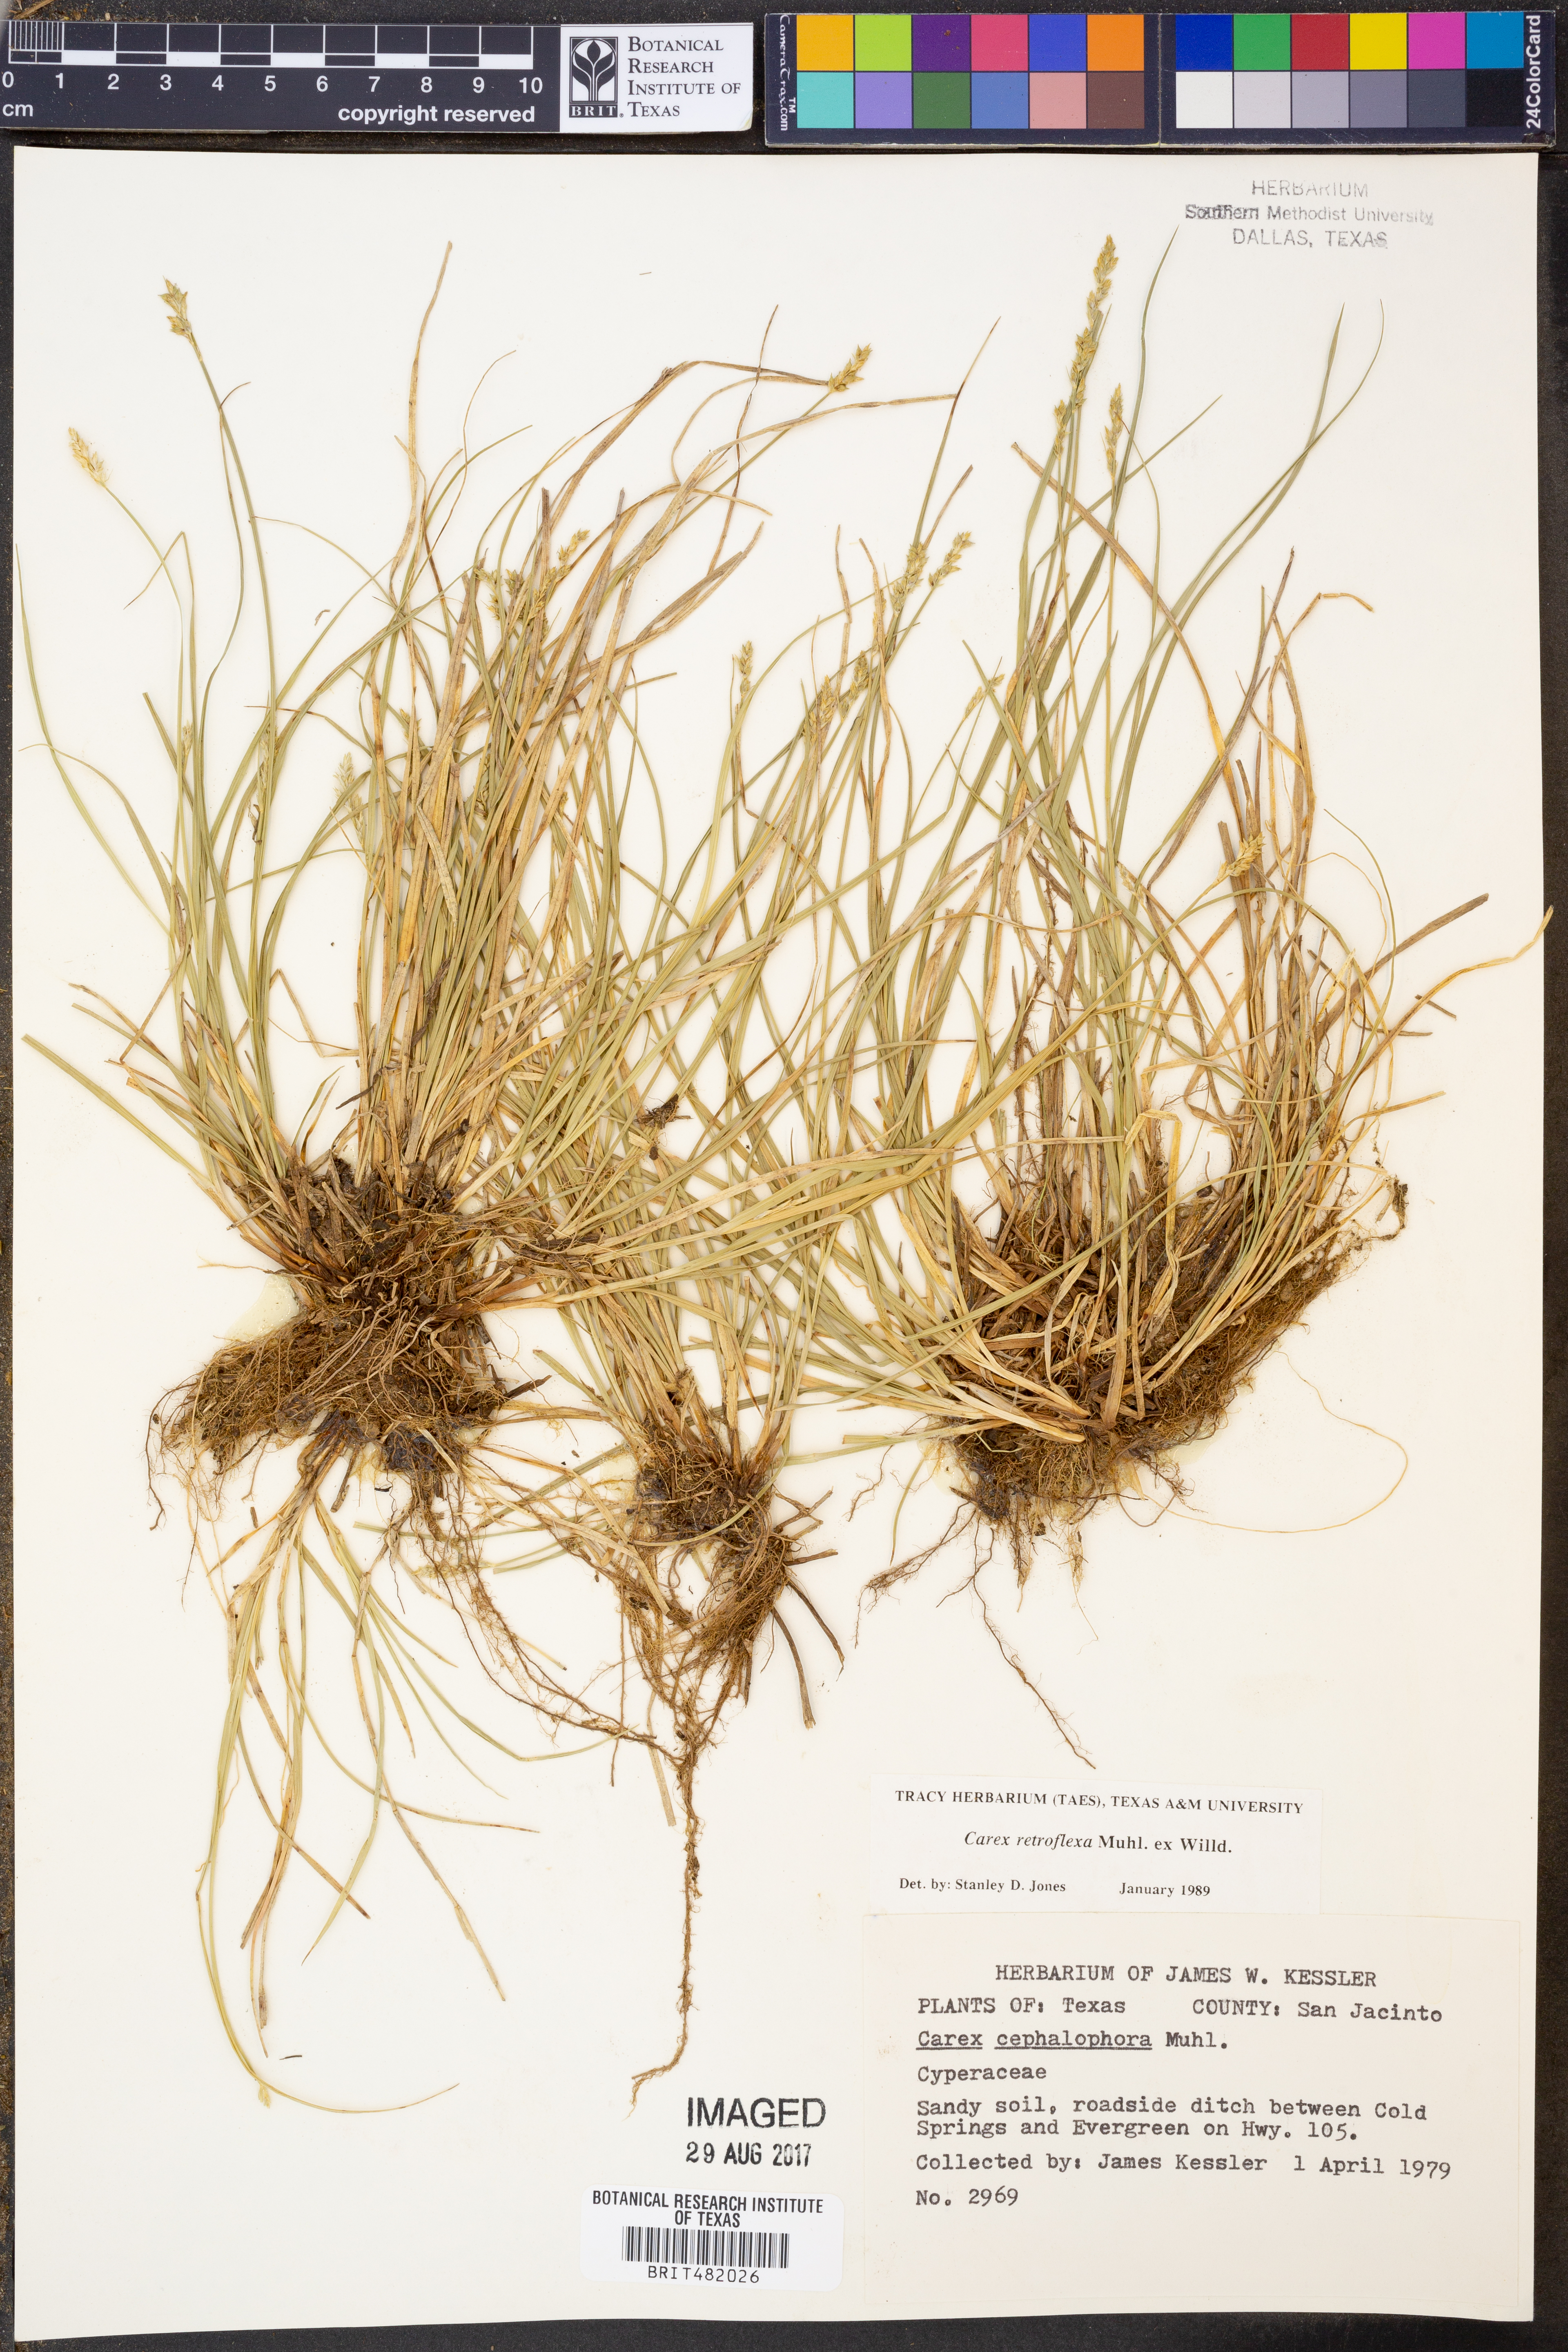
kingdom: Plantae
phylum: Tracheophyta
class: Liliopsida
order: Poales
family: Cyperaceae
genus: Carex
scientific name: Carex retroflexa
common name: Reflexed sedge
